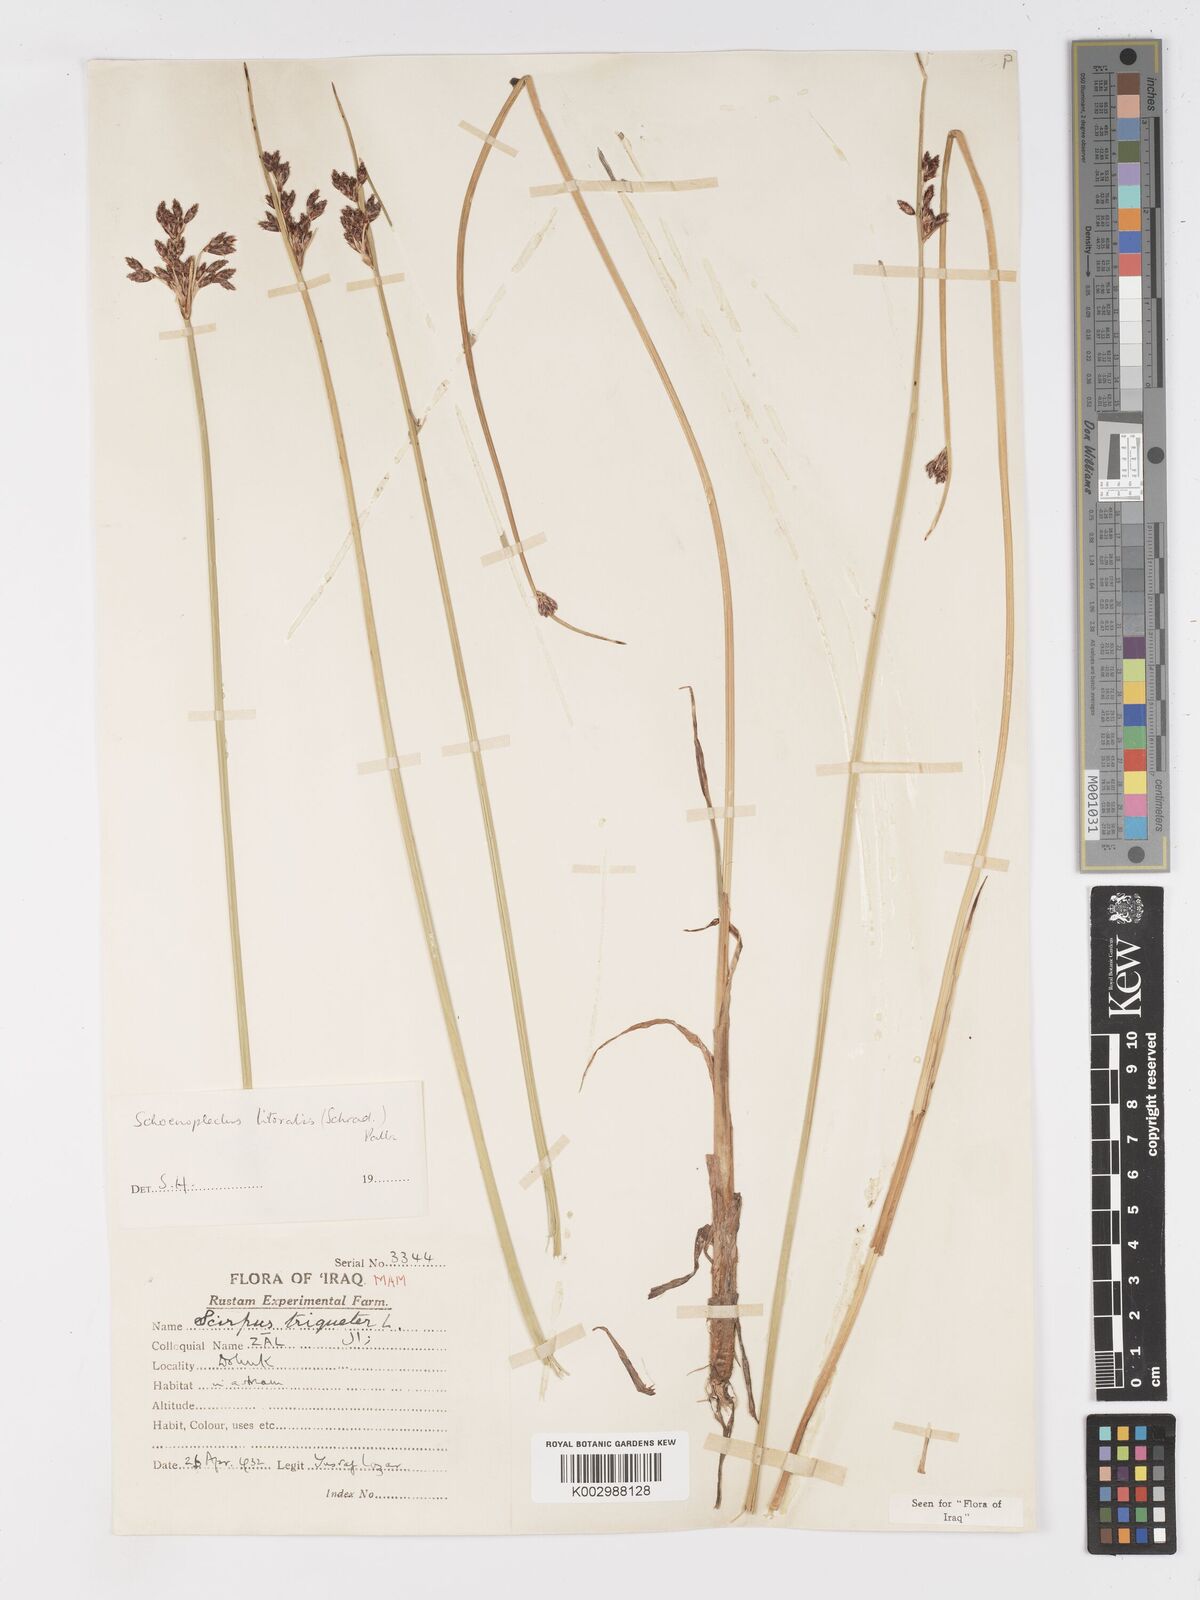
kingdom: Plantae
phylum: Tracheophyta
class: Liliopsida
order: Poales
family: Cyperaceae
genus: Schoenoplectus
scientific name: Schoenoplectus litoralis
